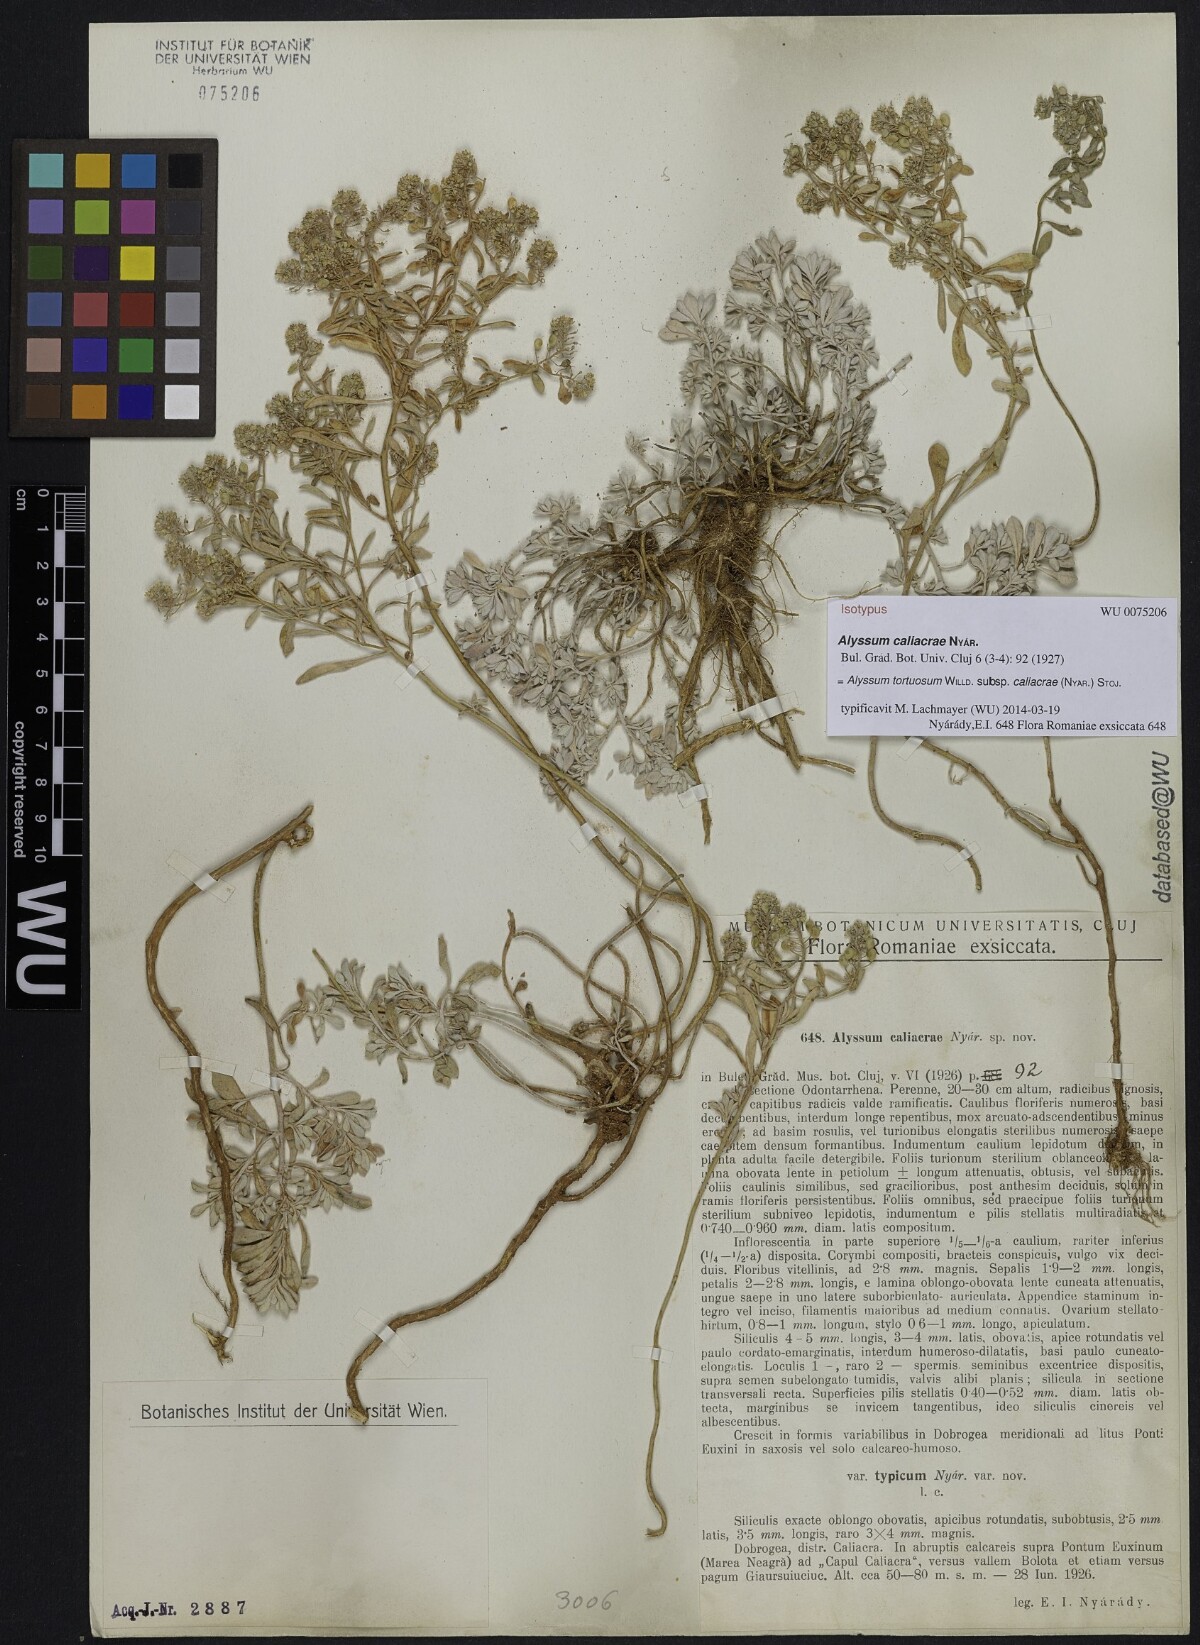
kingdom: Plantae
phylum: Tracheophyta
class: Magnoliopsida
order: Brassicales
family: Brassicaceae
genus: Odontarrhena
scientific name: Odontarrhena caliacrae
